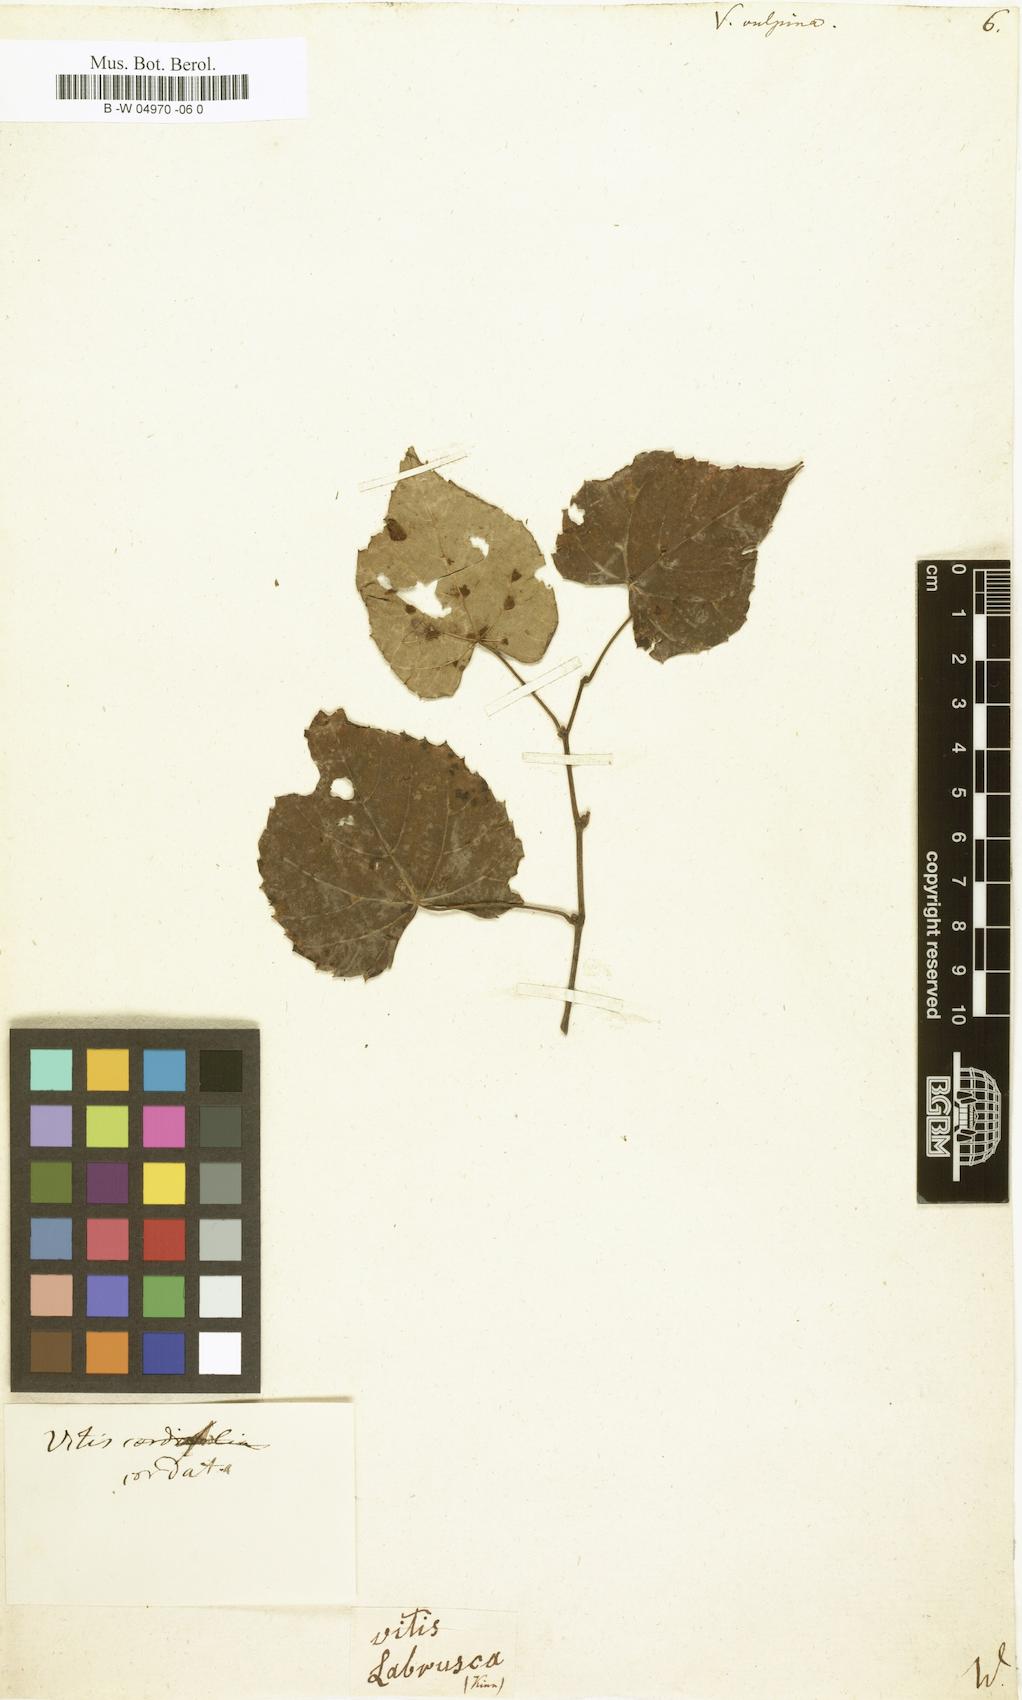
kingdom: Plantae
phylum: Tracheophyta
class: Magnoliopsida
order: Vitales
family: Vitaceae
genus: Vitis
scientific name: Vitis vulpina
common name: Frost grape
